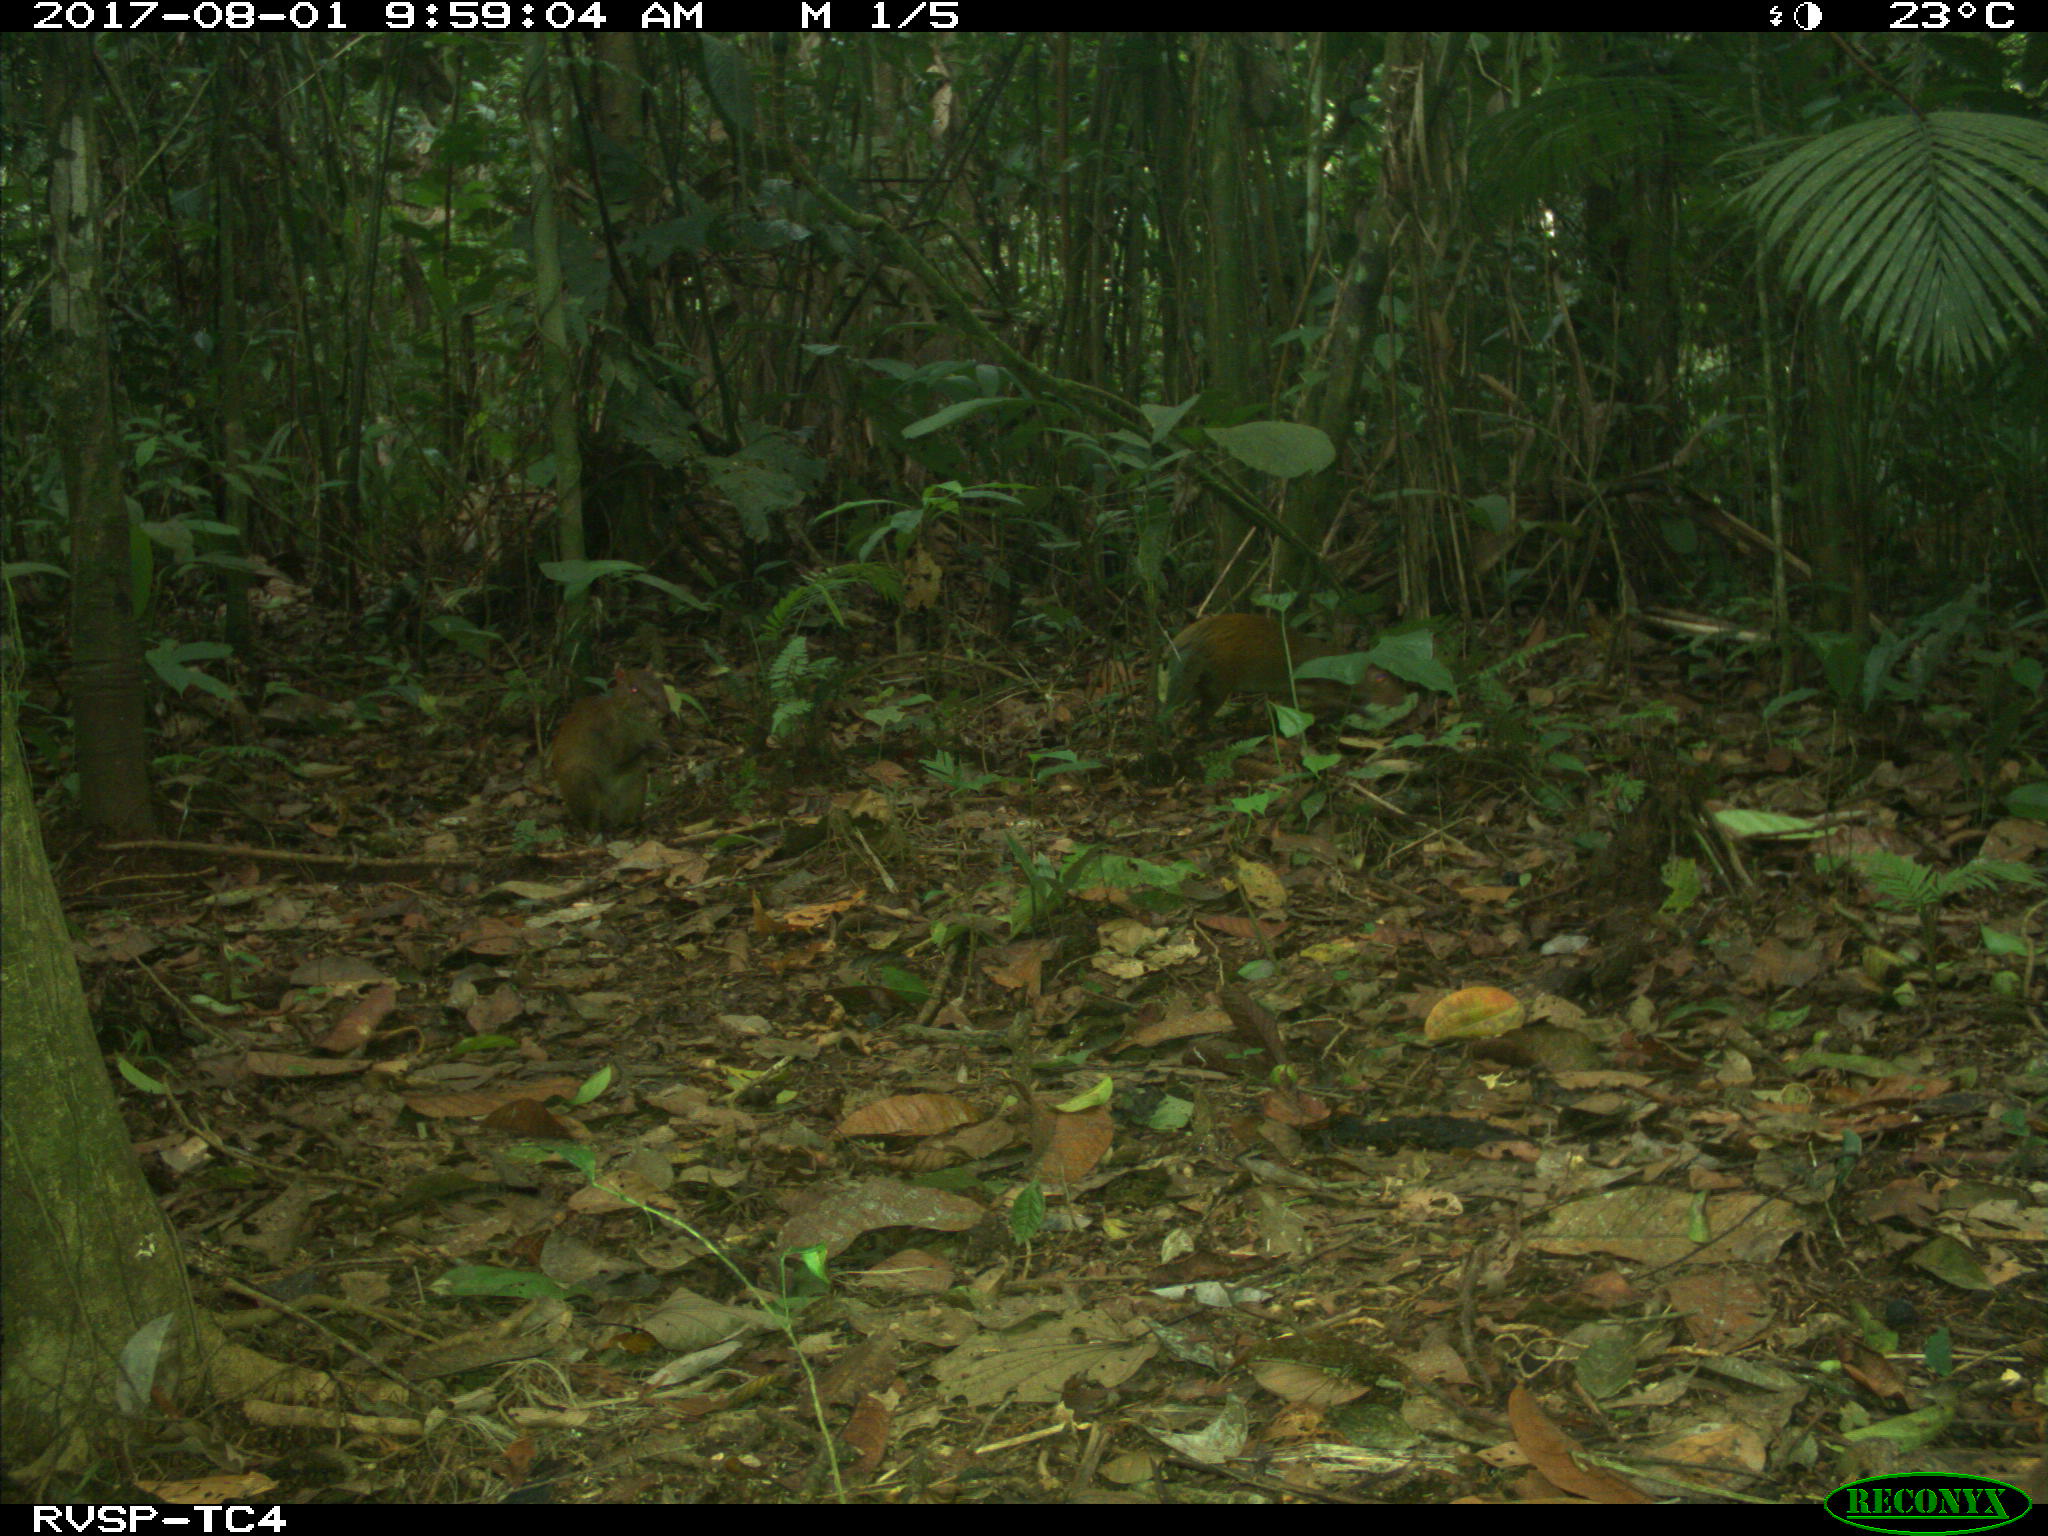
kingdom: Animalia
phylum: Chordata
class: Mammalia
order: Rodentia
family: Dasyproctidae
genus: Dasyprocta
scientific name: Dasyprocta punctata
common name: Central american agouti
